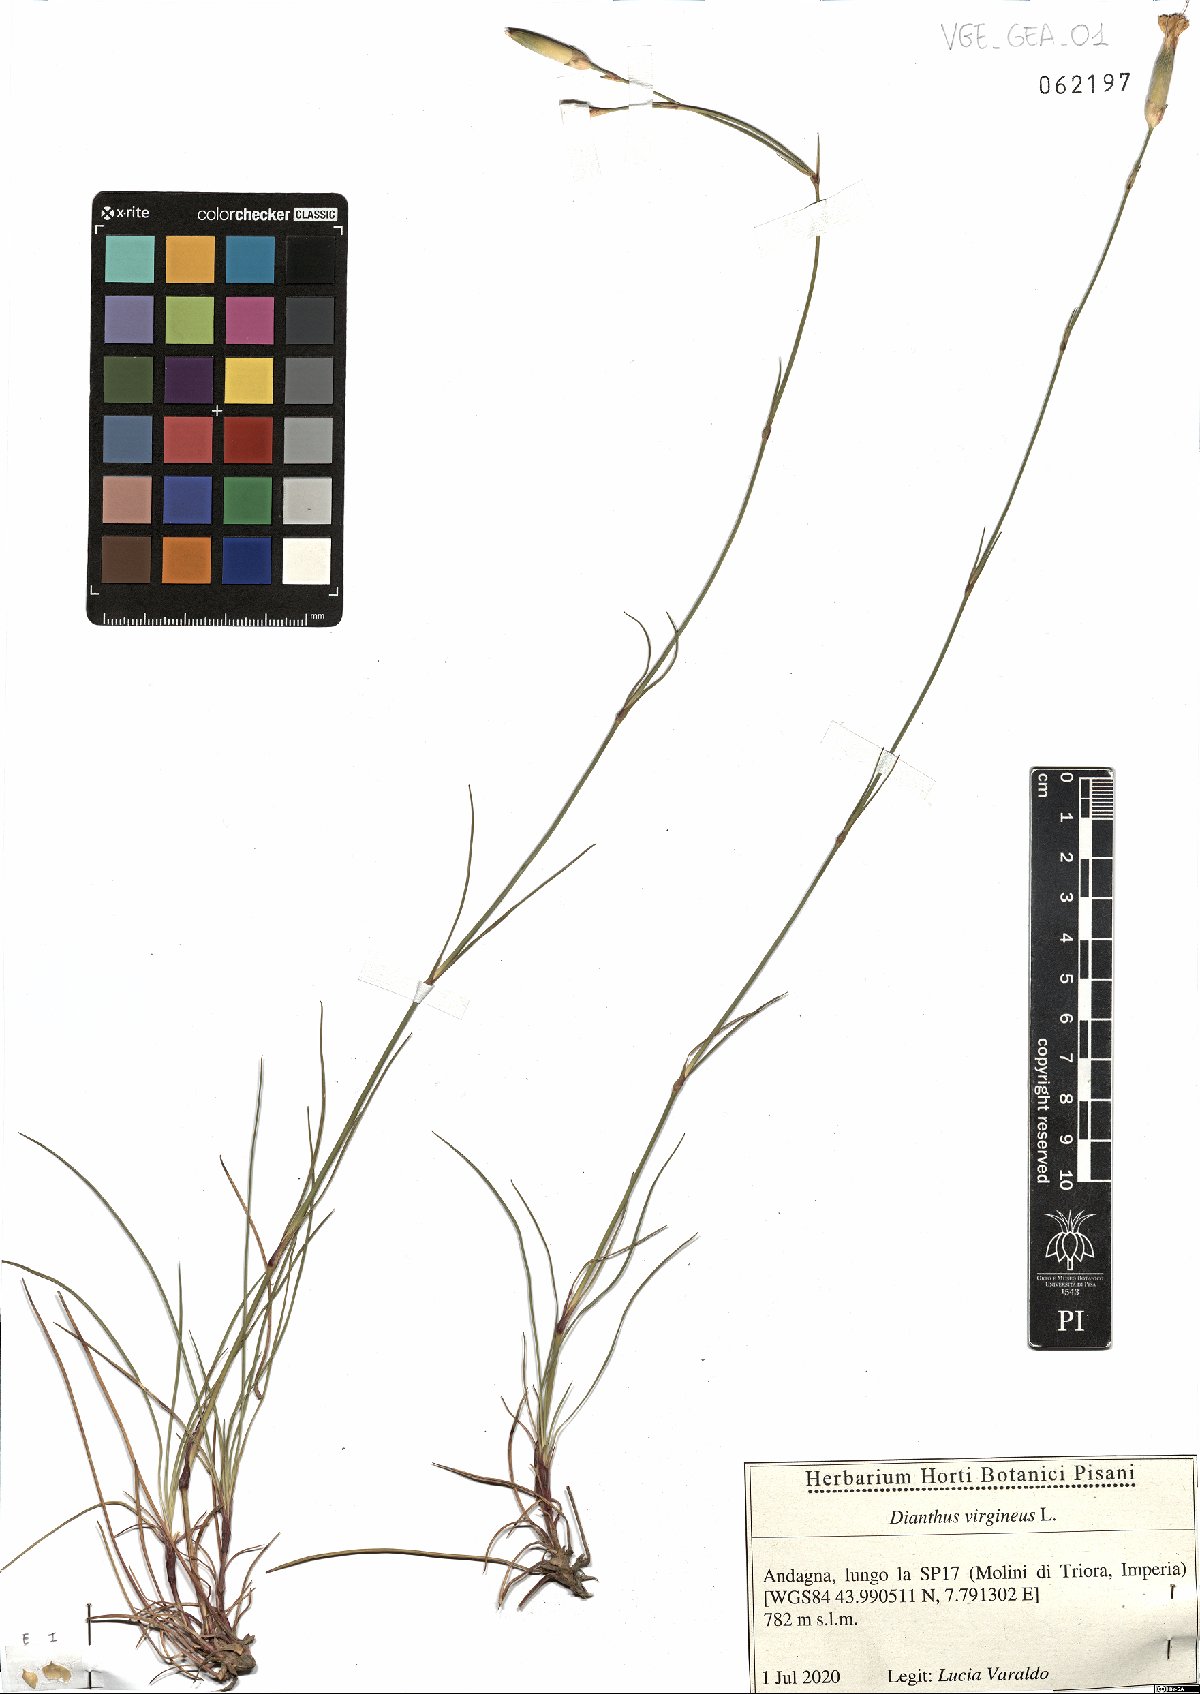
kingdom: Plantae
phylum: Tracheophyta
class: Magnoliopsida
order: Caryophyllales
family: Caryophyllaceae
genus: Dianthus
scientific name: Dianthus virgineus
